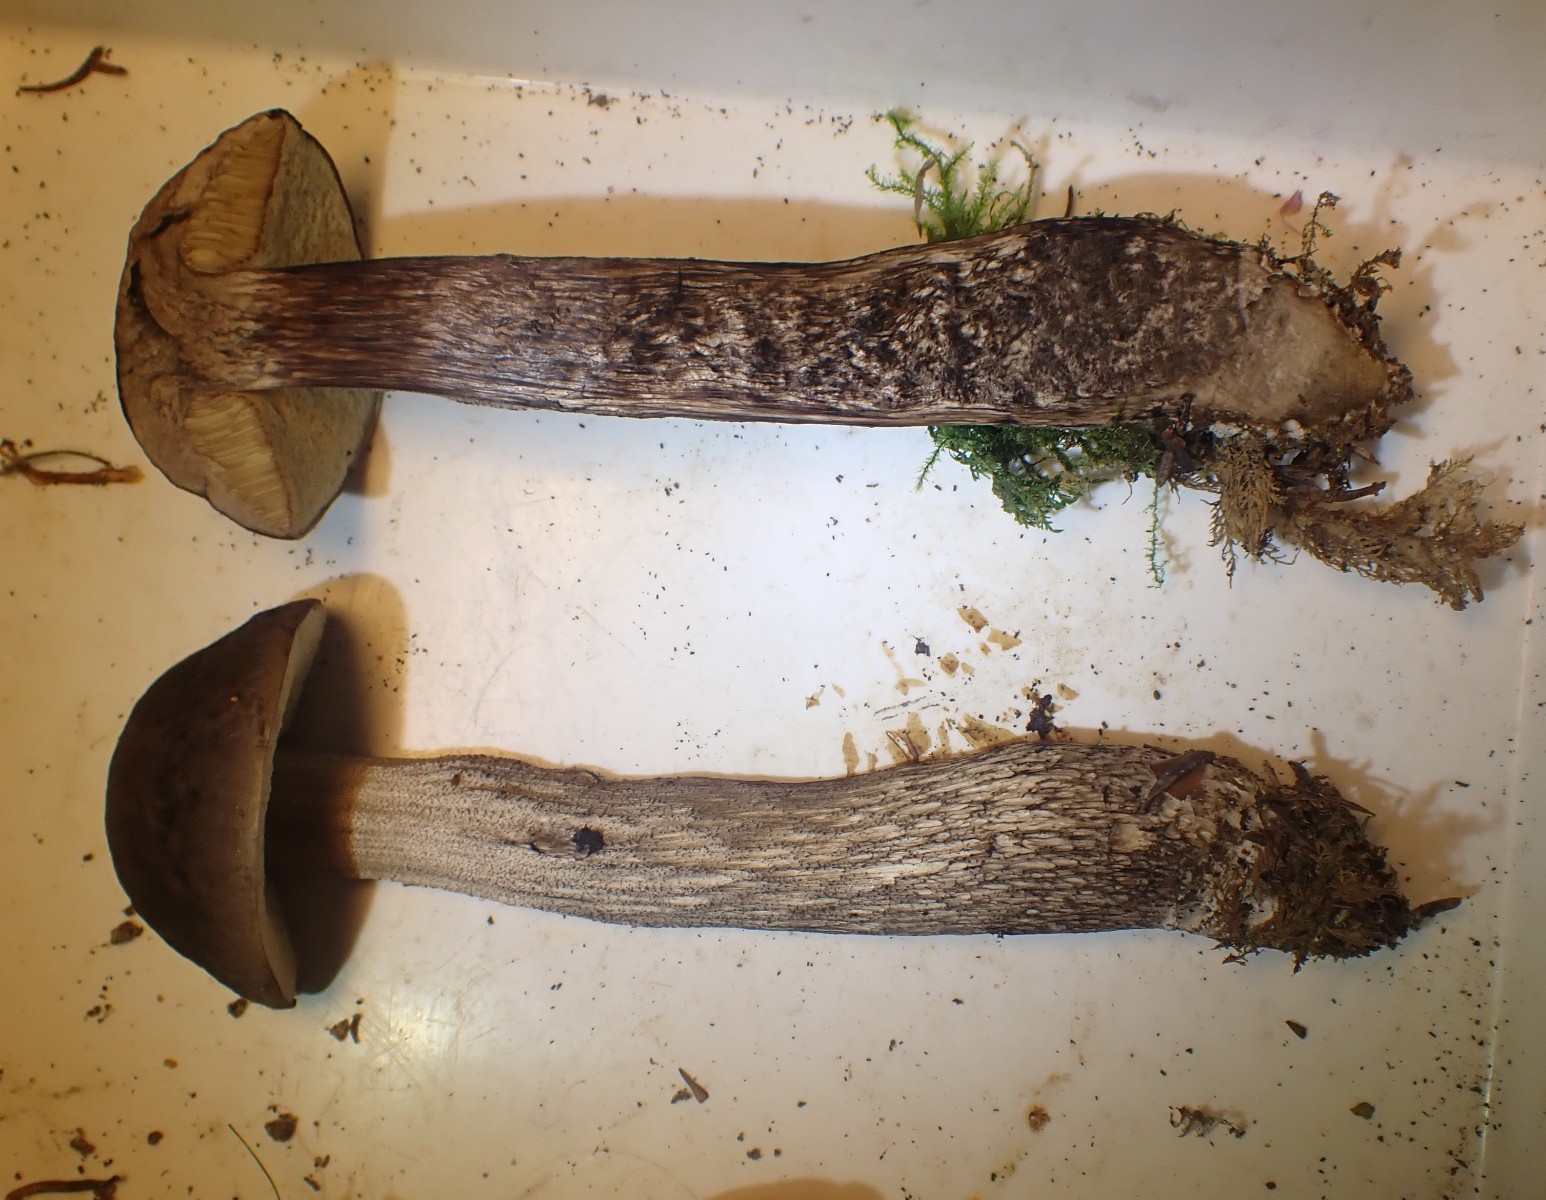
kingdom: Fungi
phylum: Basidiomycota
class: Agaricomycetes
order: Boletales
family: Boletaceae
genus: Leccinellum
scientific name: Leccinellum pseudoscabrum
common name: avnbøg-skælrørhat
